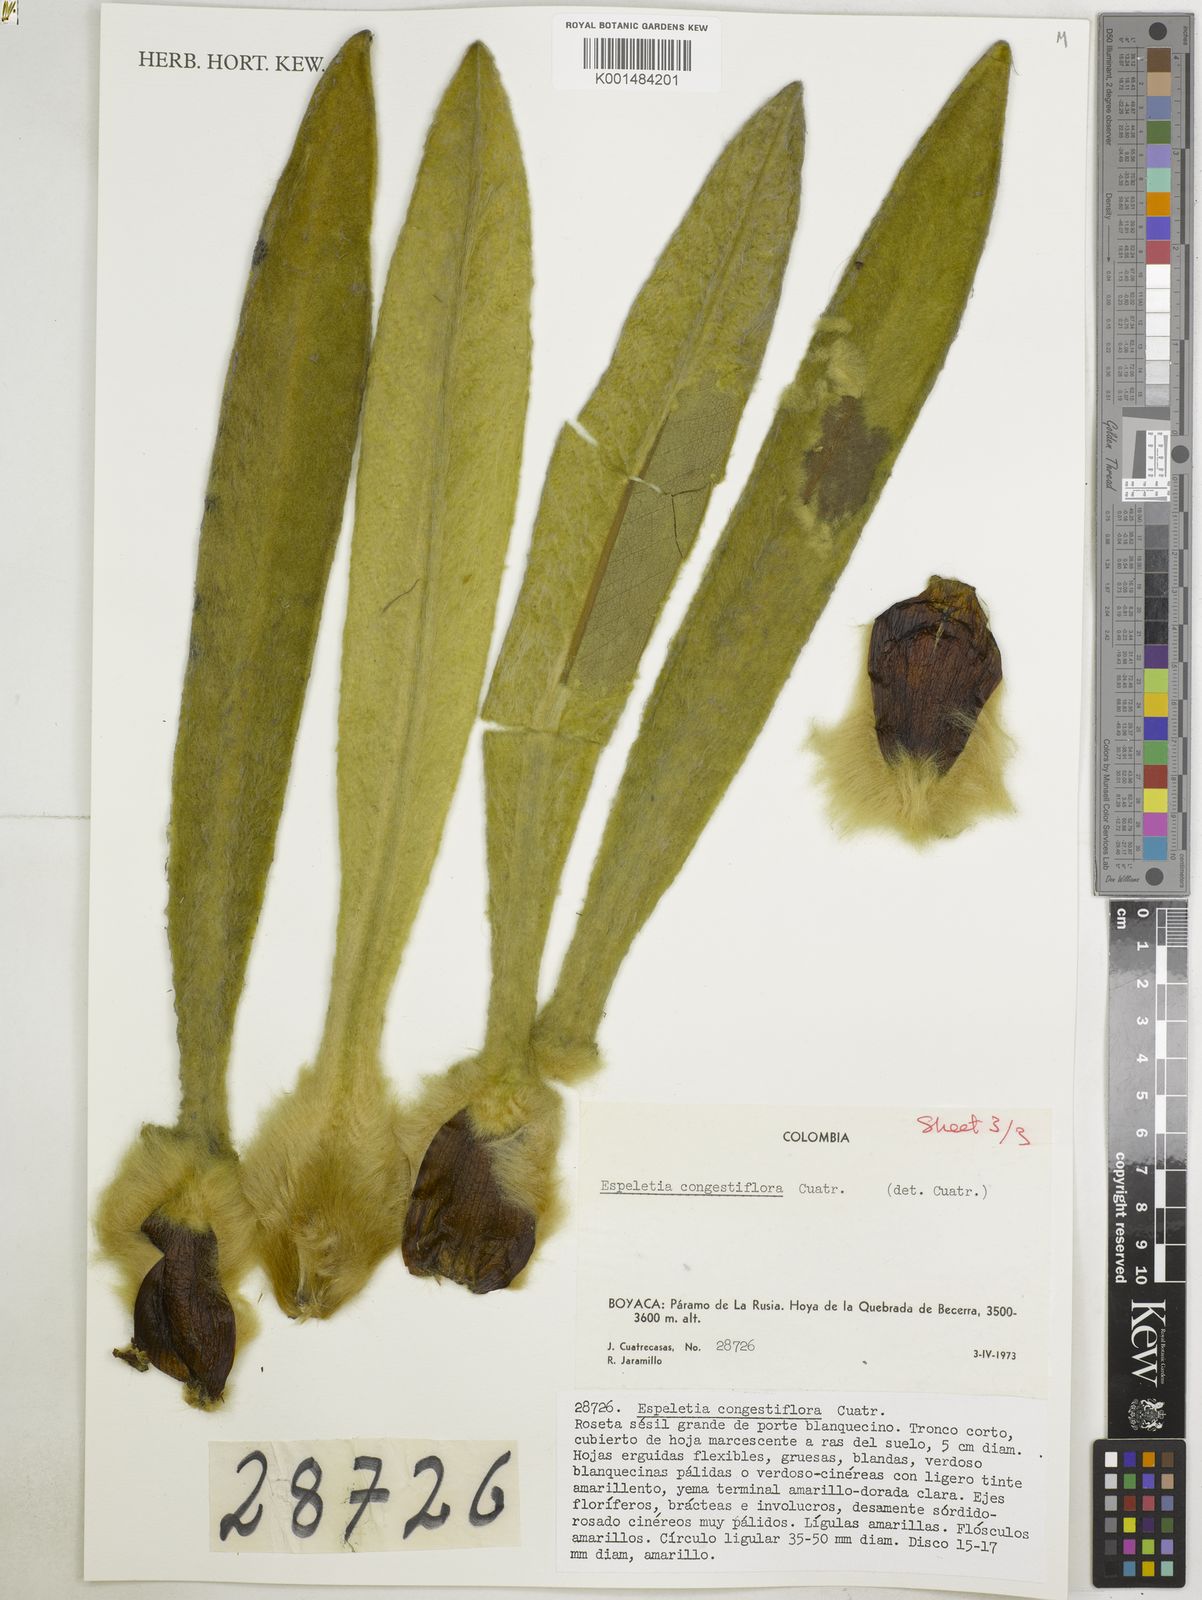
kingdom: Plantae
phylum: Tracheophyta
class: Magnoliopsida
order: Asterales
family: Asteraceae
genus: Espeletia
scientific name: Espeletia congestiflora
